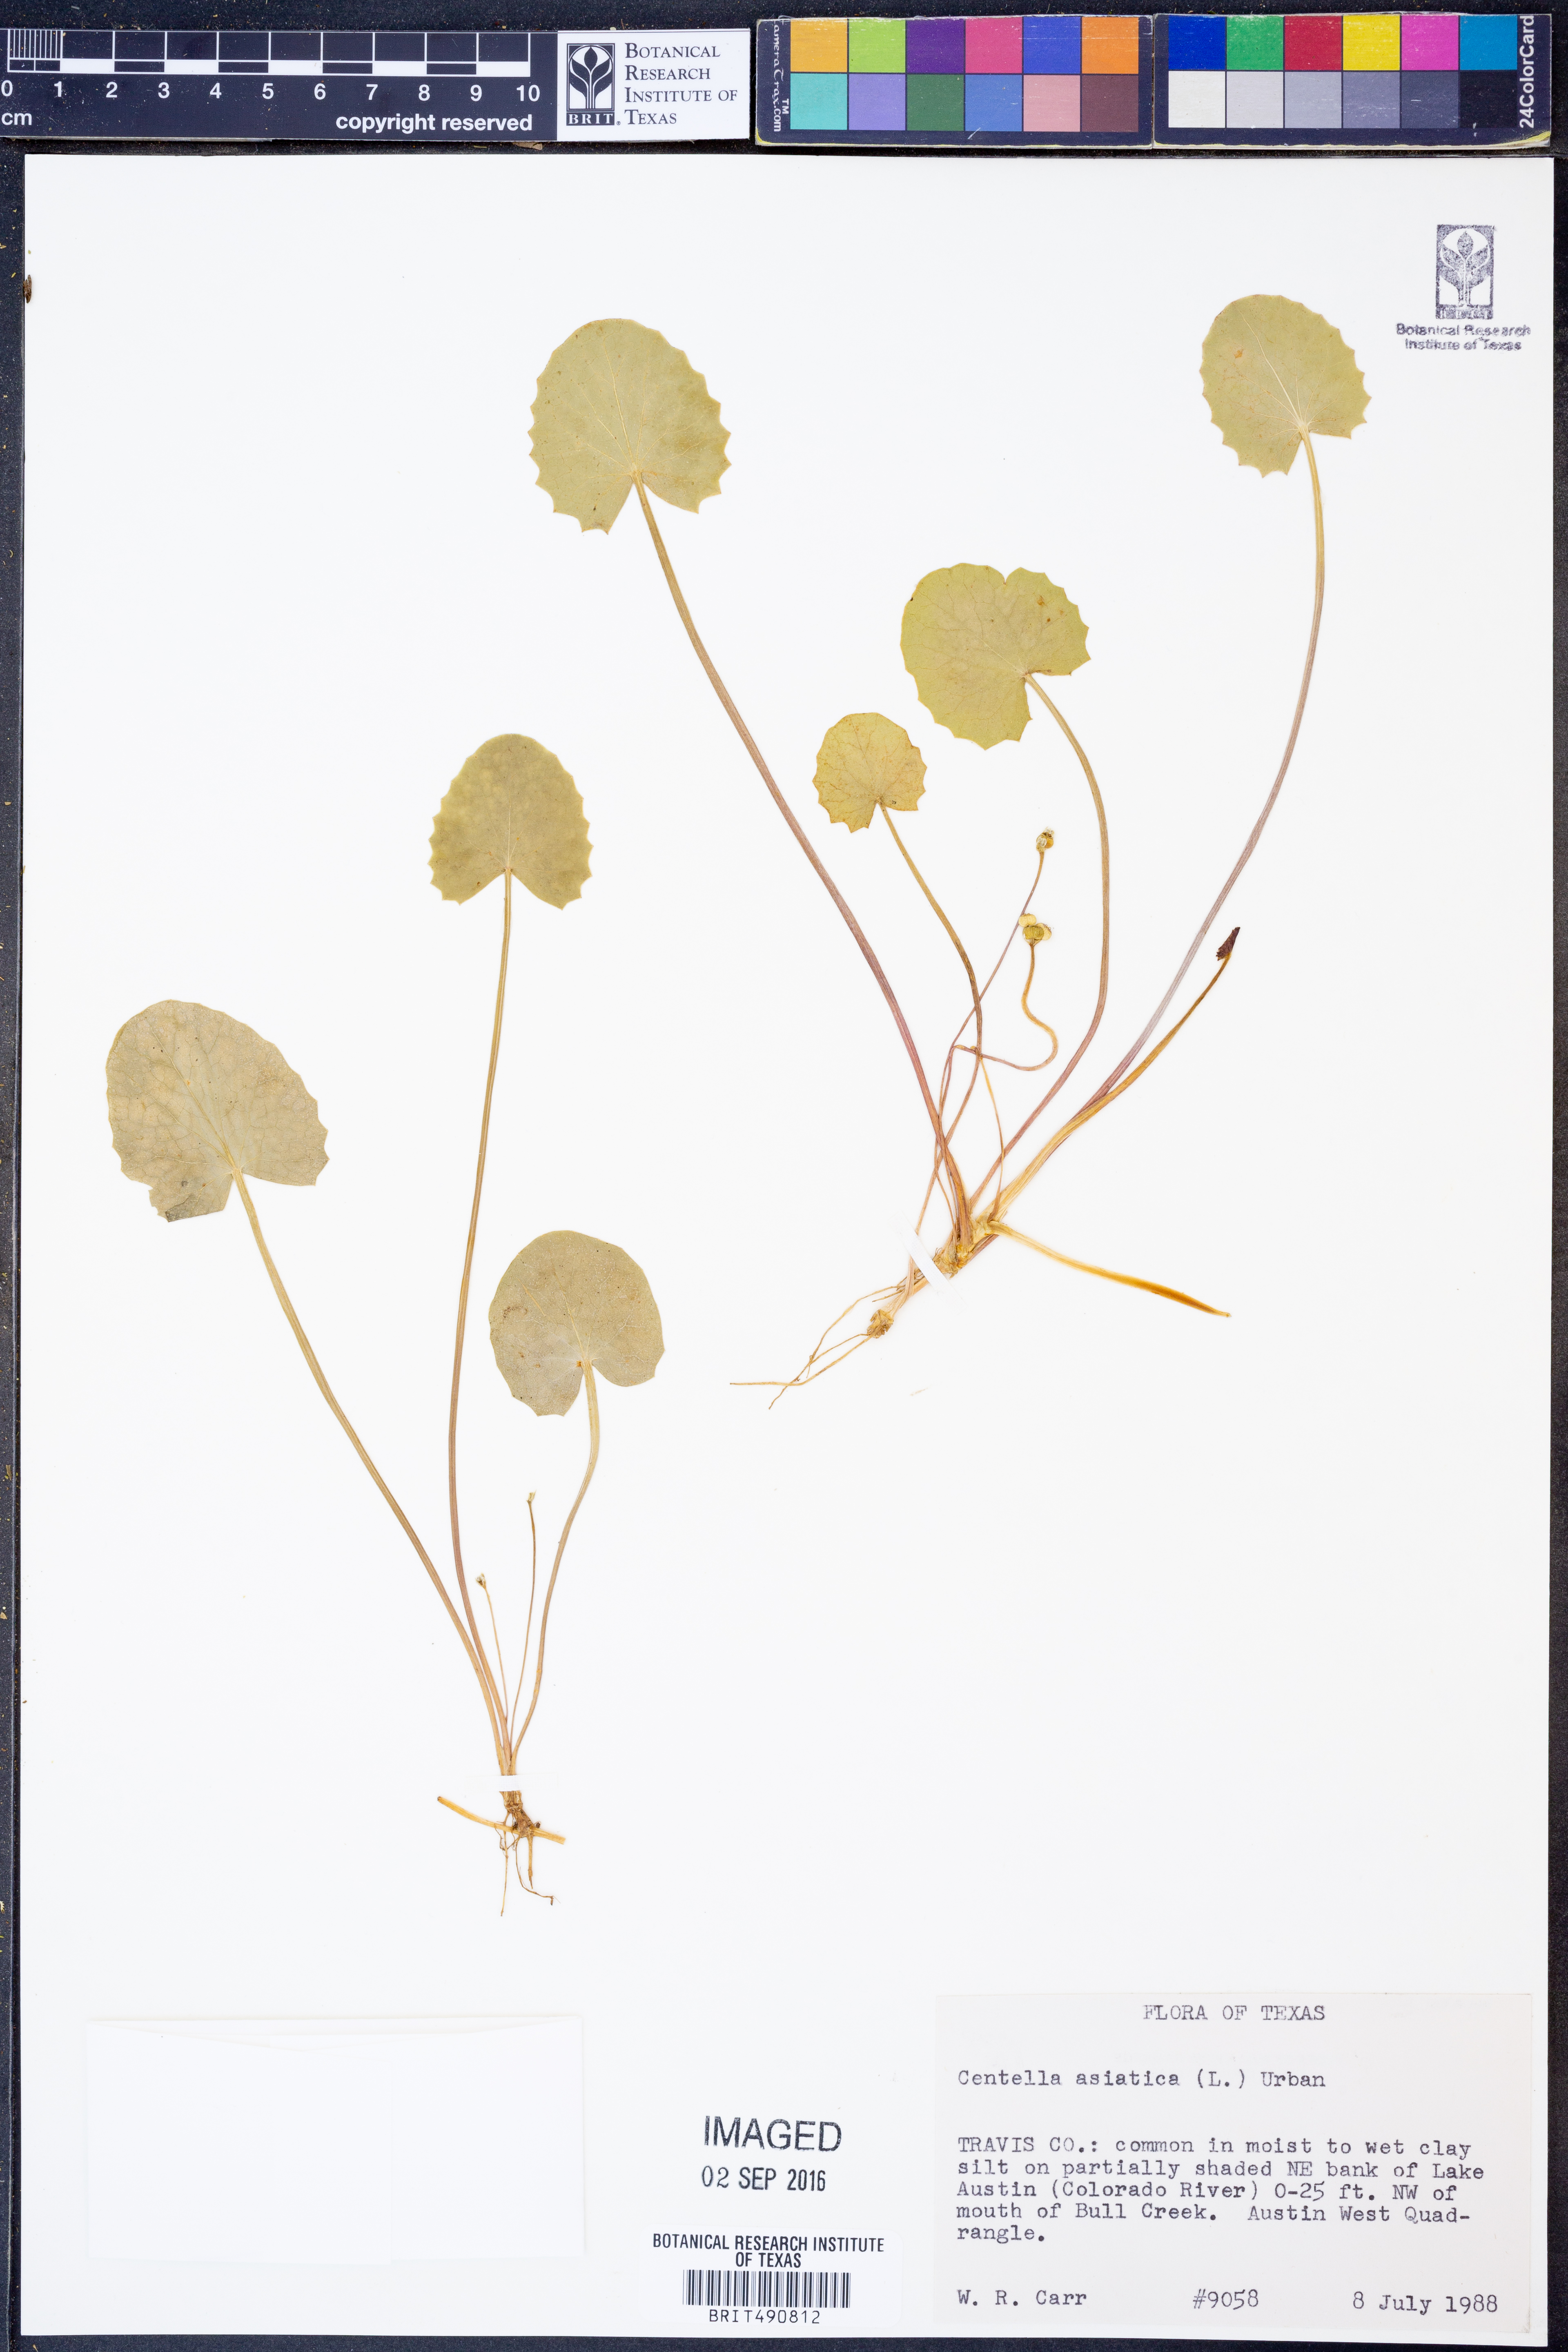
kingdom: Plantae
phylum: Tracheophyta
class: Magnoliopsida
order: Apiales
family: Apiaceae
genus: Centella
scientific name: Centella asiatica
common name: Spadeleaf
